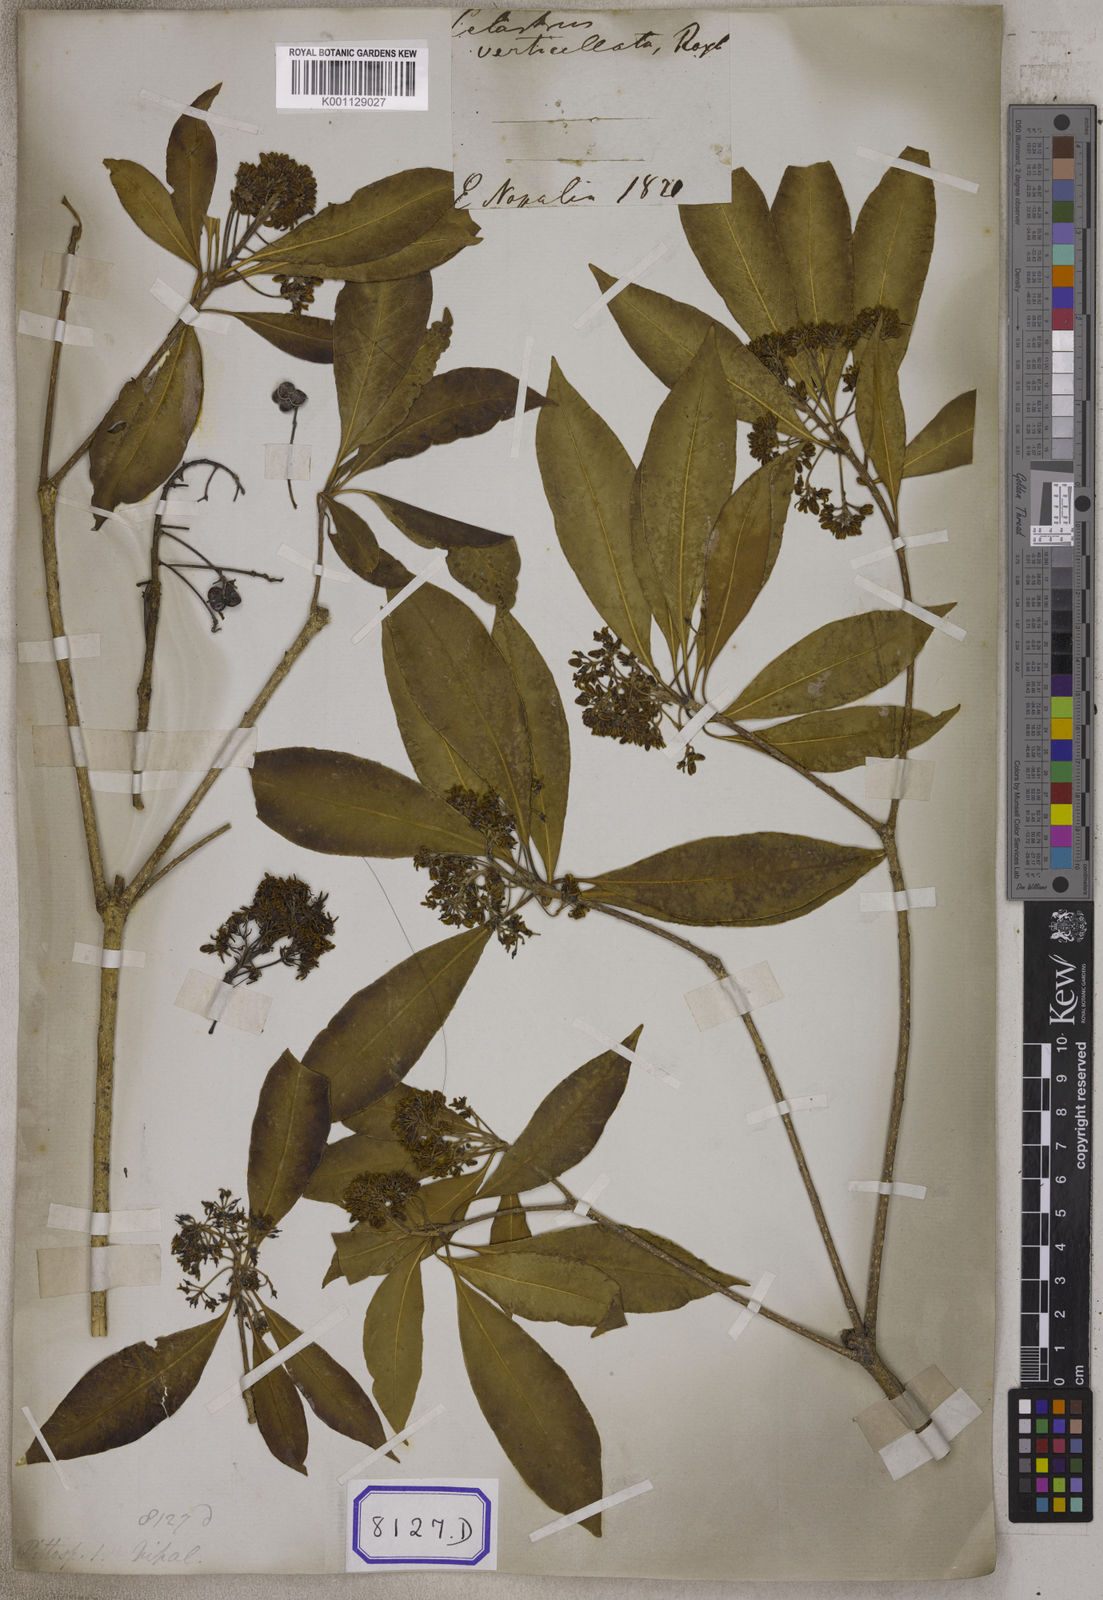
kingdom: Plantae
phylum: Tracheophyta
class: Magnoliopsida
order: Apiales
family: Pittosporaceae
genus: Pittosporum
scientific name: Pittosporum
